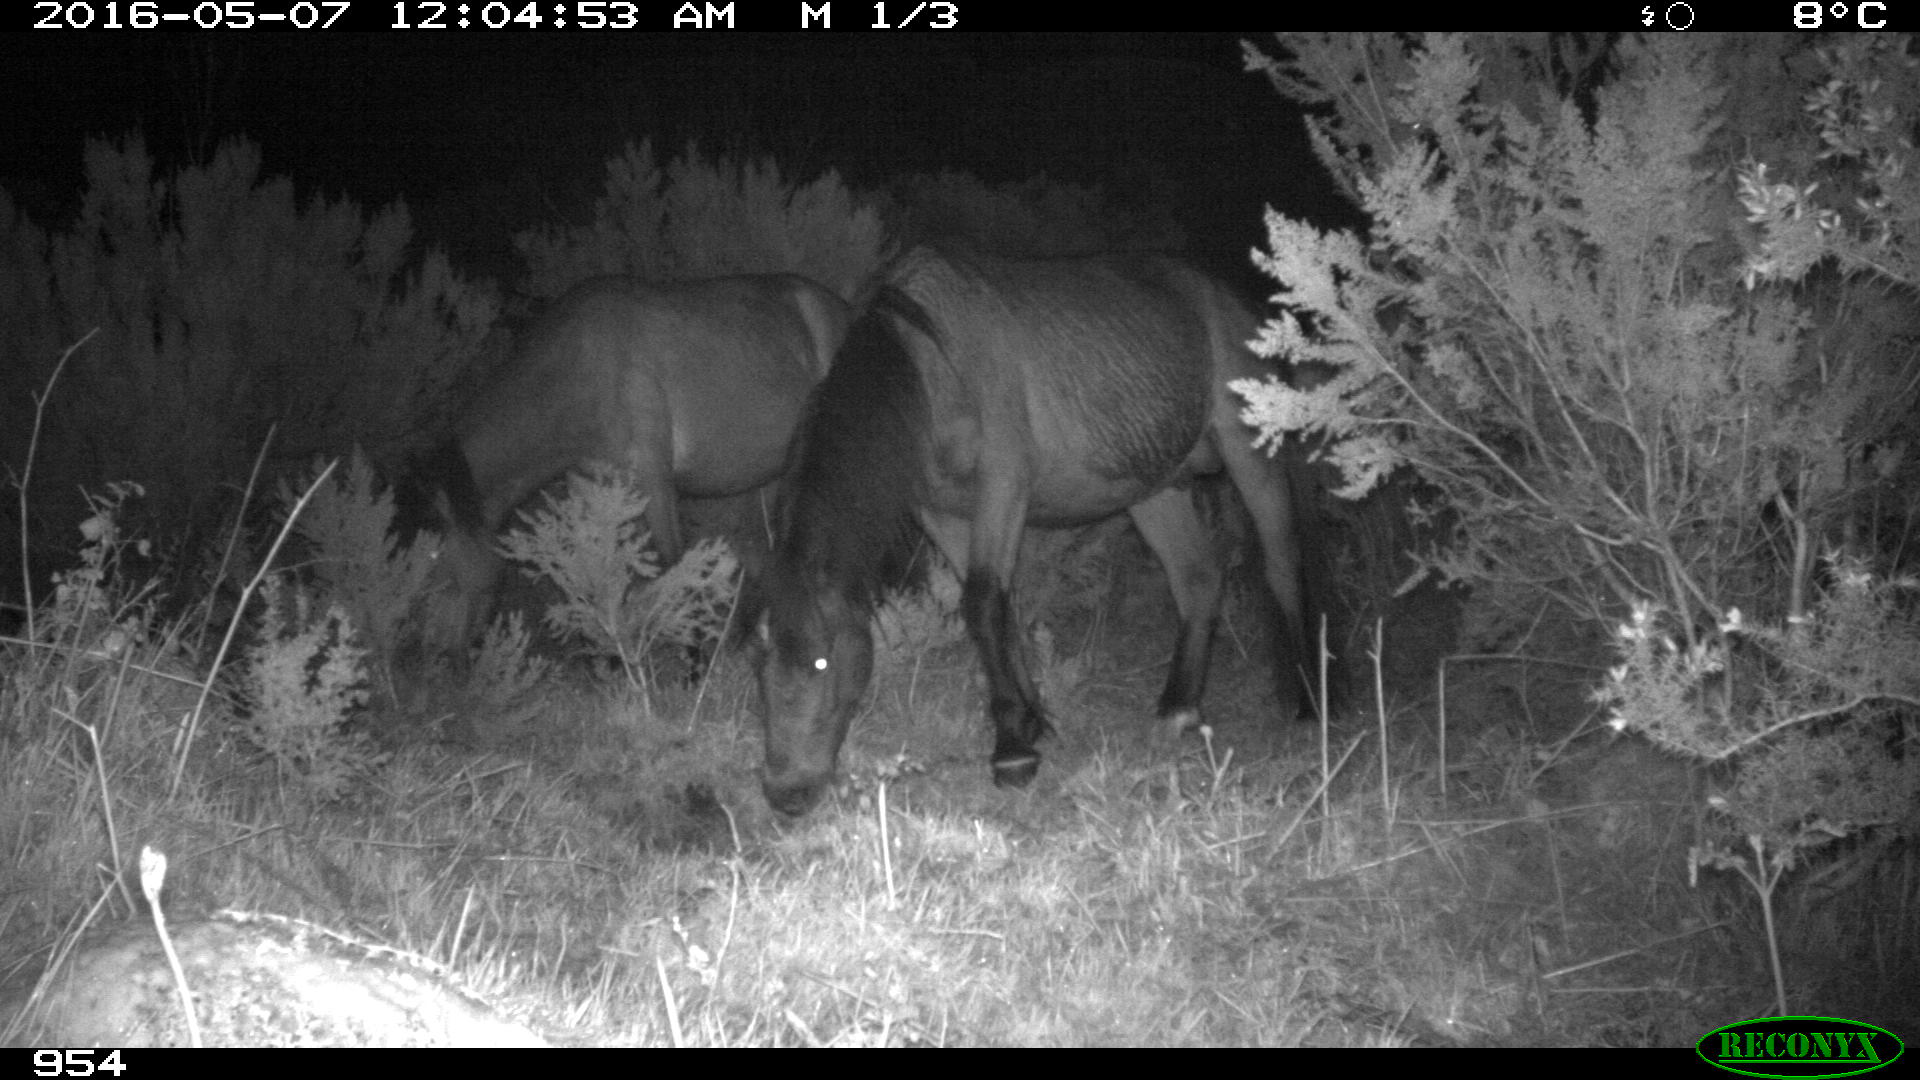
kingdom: Animalia
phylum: Chordata
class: Mammalia
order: Perissodactyla
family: Equidae
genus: Equus
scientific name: Equus caballus
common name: Horse
